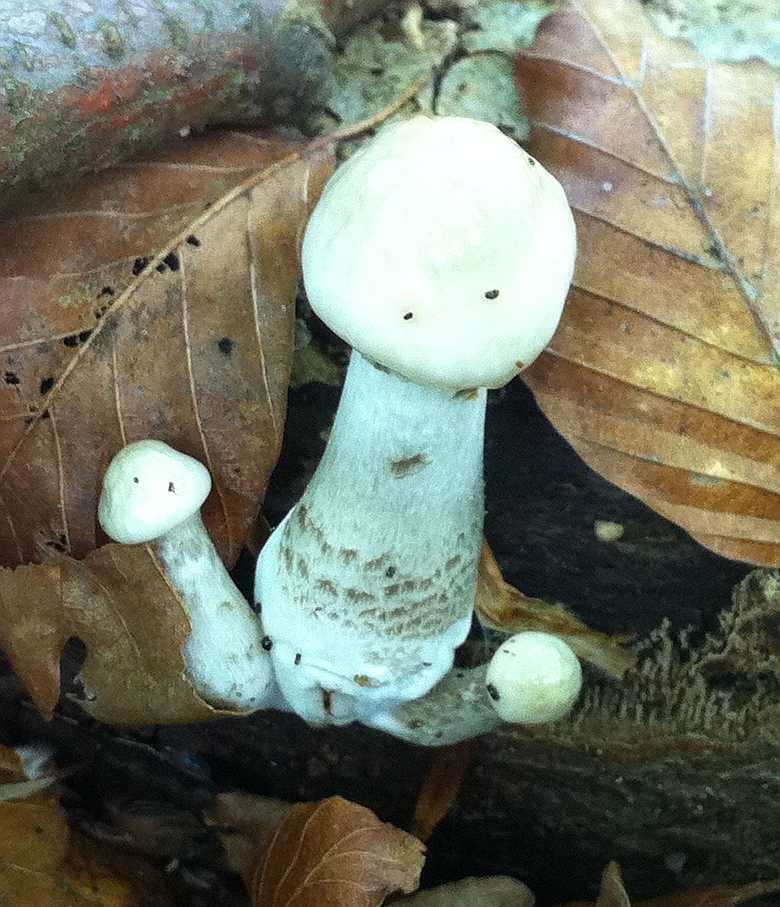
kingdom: Fungi
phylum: Basidiomycota
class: Agaricomycetes
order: Agaricales
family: Physalacriaceae
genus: Mucidula
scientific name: Mucidula mucida
